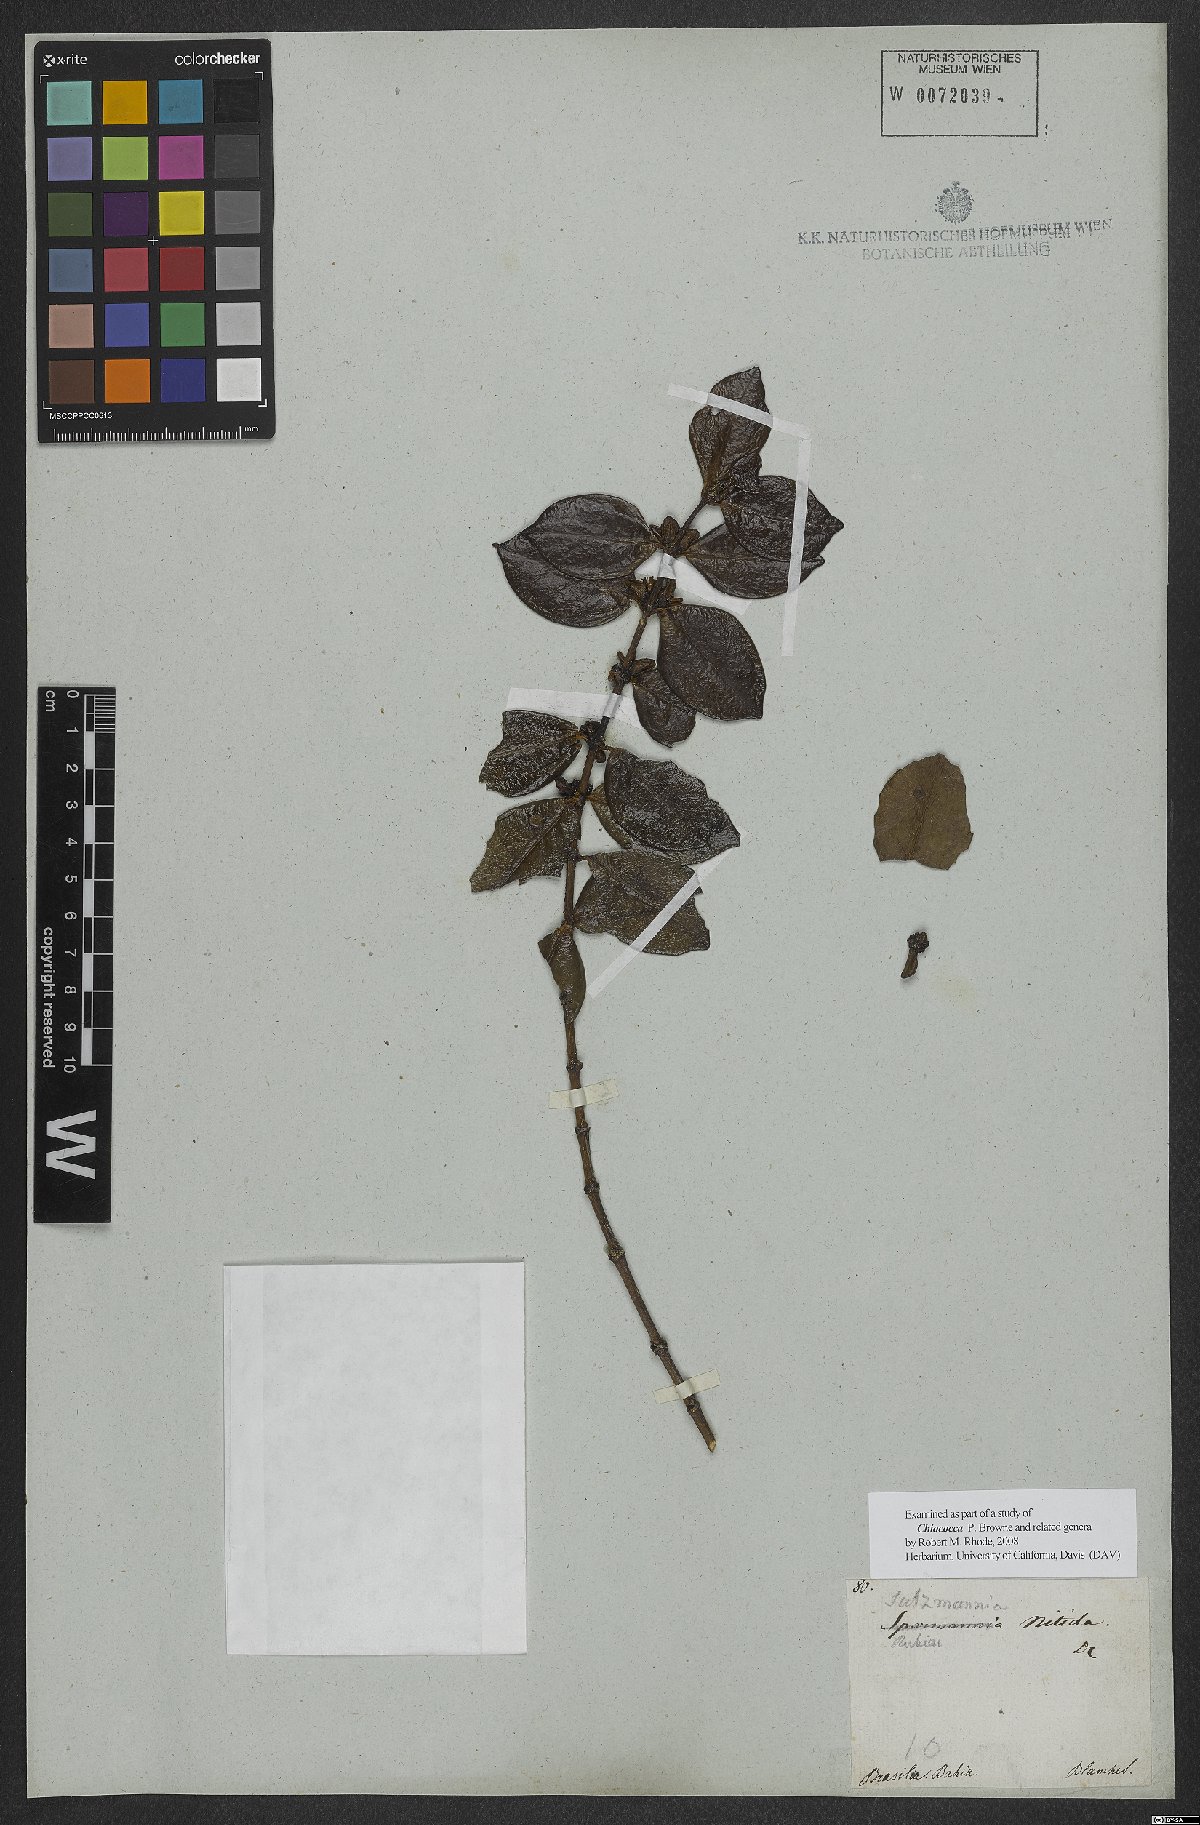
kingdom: Plantae
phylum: Tracheophyta
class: Magnoliopsida
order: Gentianales
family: Rubiaceae
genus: Chiococca
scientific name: Chiococca nitida
